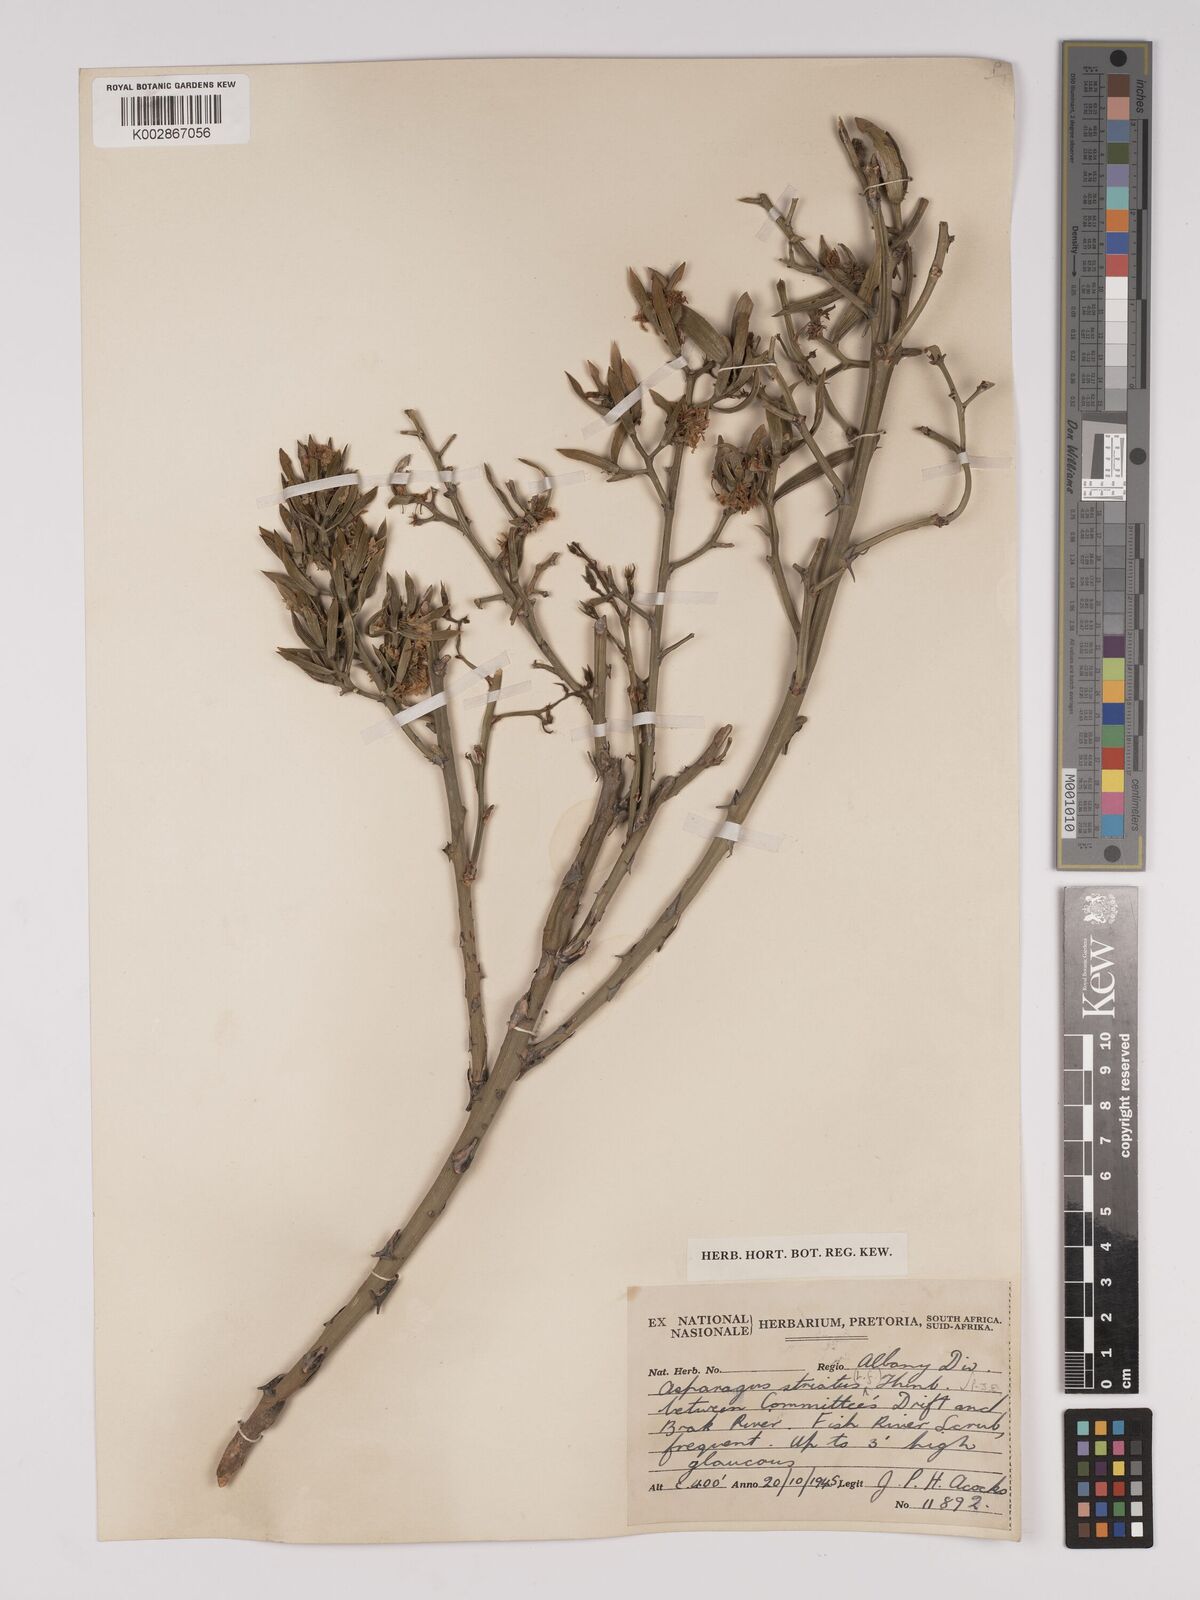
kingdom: Plantae
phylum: Tracheophyta
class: Liliopsida
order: Asparagales
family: Asparagaceae
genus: Asparagus
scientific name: Asparagus striatus
